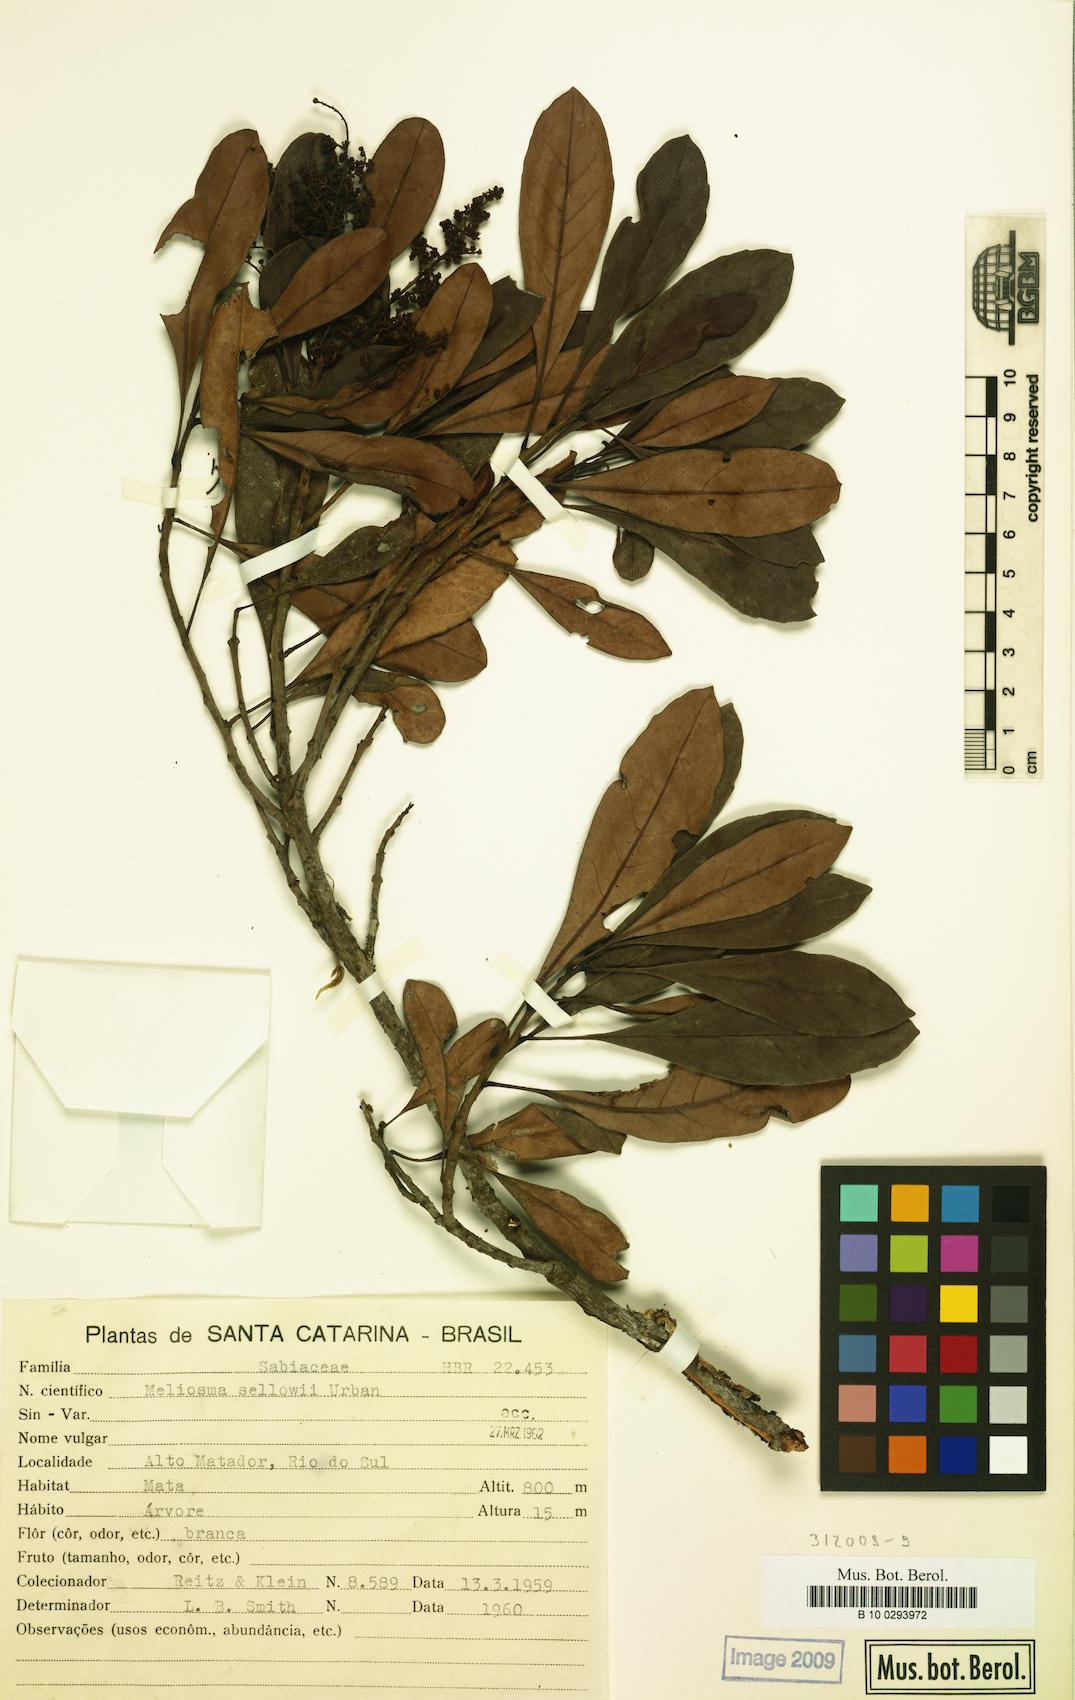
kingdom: Plantae
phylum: Tracheophyta
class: Magnoliopsida
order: Proteales
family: Sabiaceae
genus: Meliosma
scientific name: Meliosma sellowii
